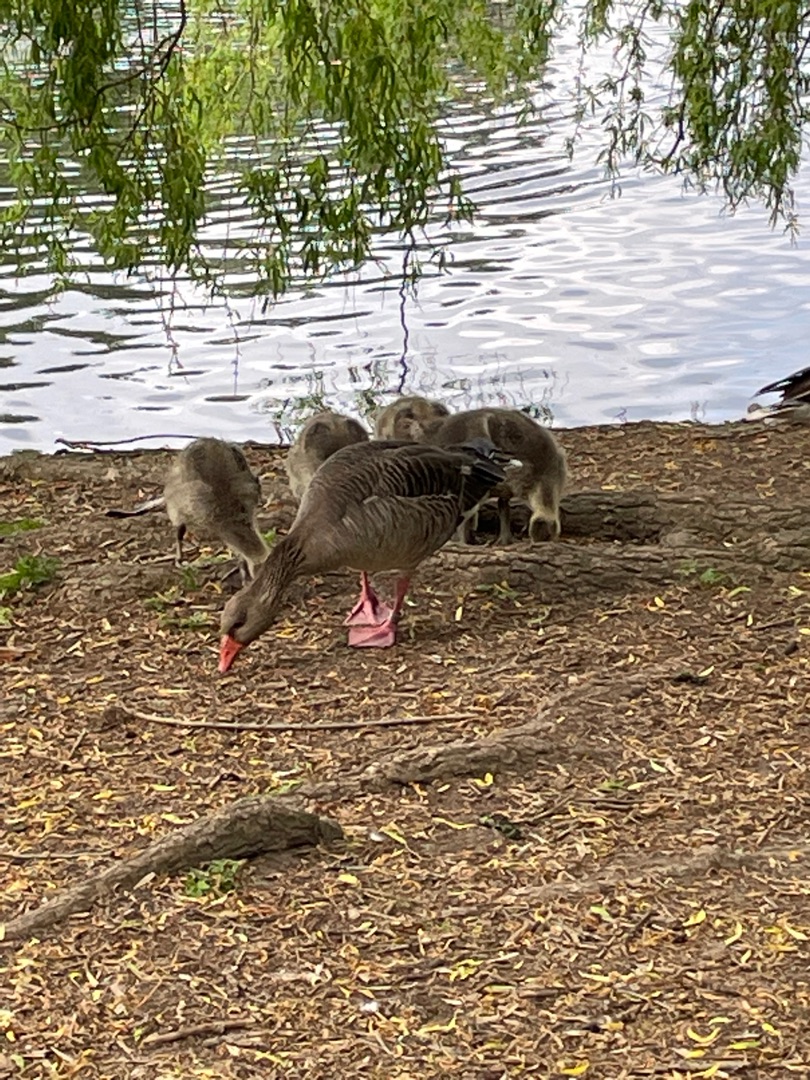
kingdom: Animalia
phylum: Chordata
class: Aves
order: Anseriformes
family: Anatidae
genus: Anser
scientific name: Anser anser
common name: Grågås
